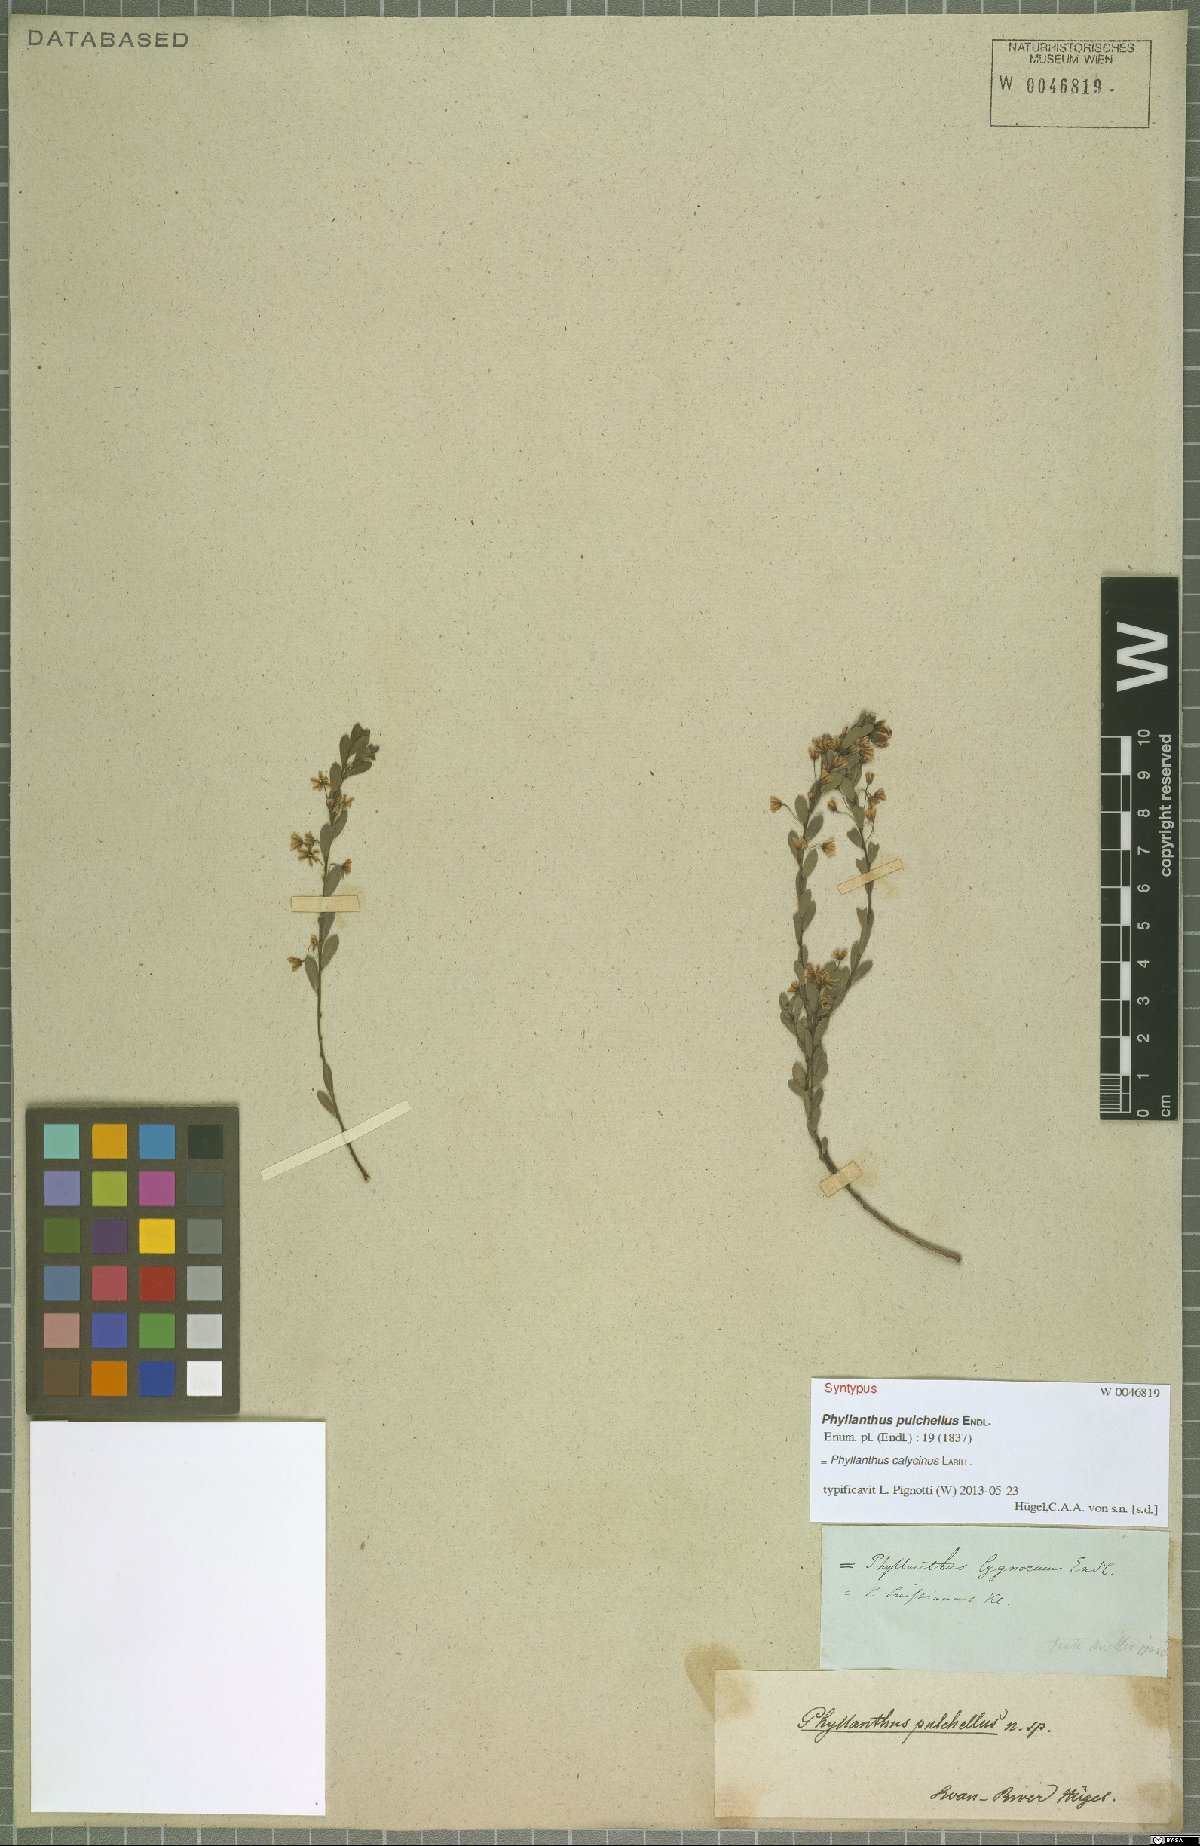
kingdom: Plantae
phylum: Tracheophyta
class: Magnoliopsida
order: Malpighiales
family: Phyllanthaceae
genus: Phyllanthus
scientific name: Phyllanthus calycinus
